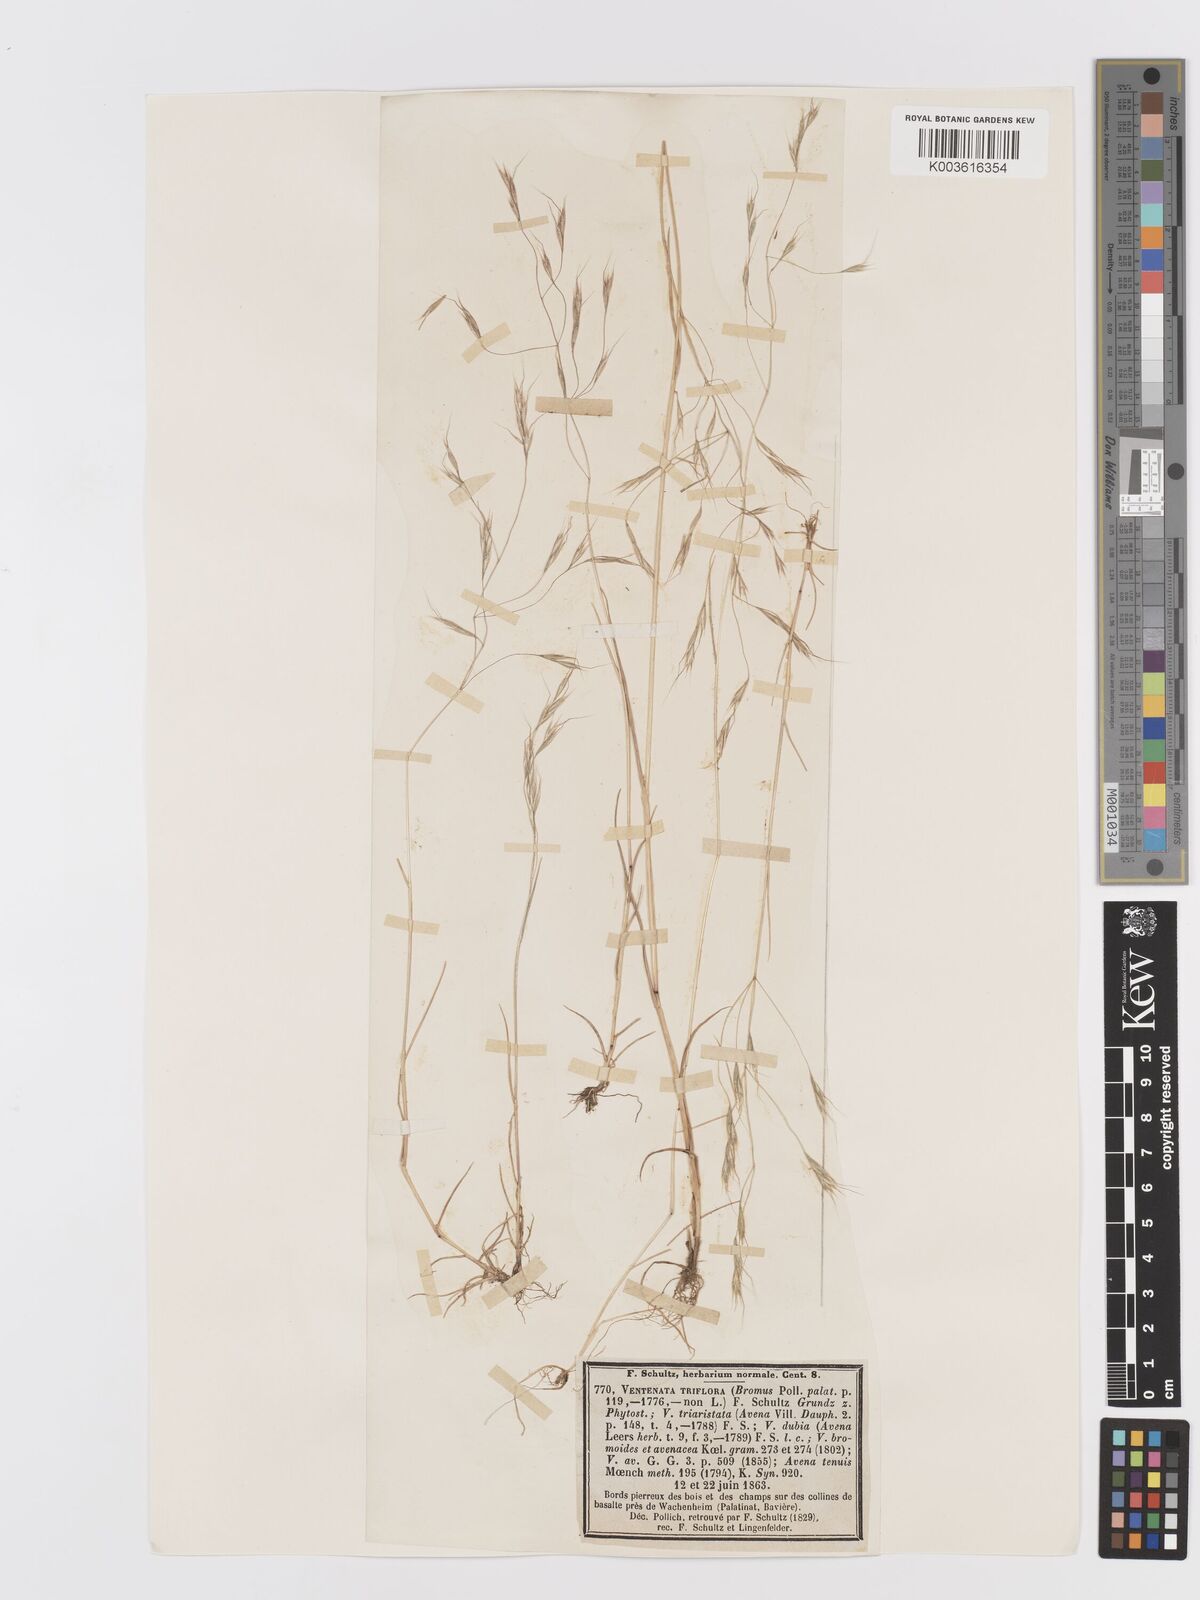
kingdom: Plantae
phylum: Tracheophyta
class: Liliopsida
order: Poales
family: Poaceae
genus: Ventenata
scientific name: Ventenata dubia
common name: North africa grass
